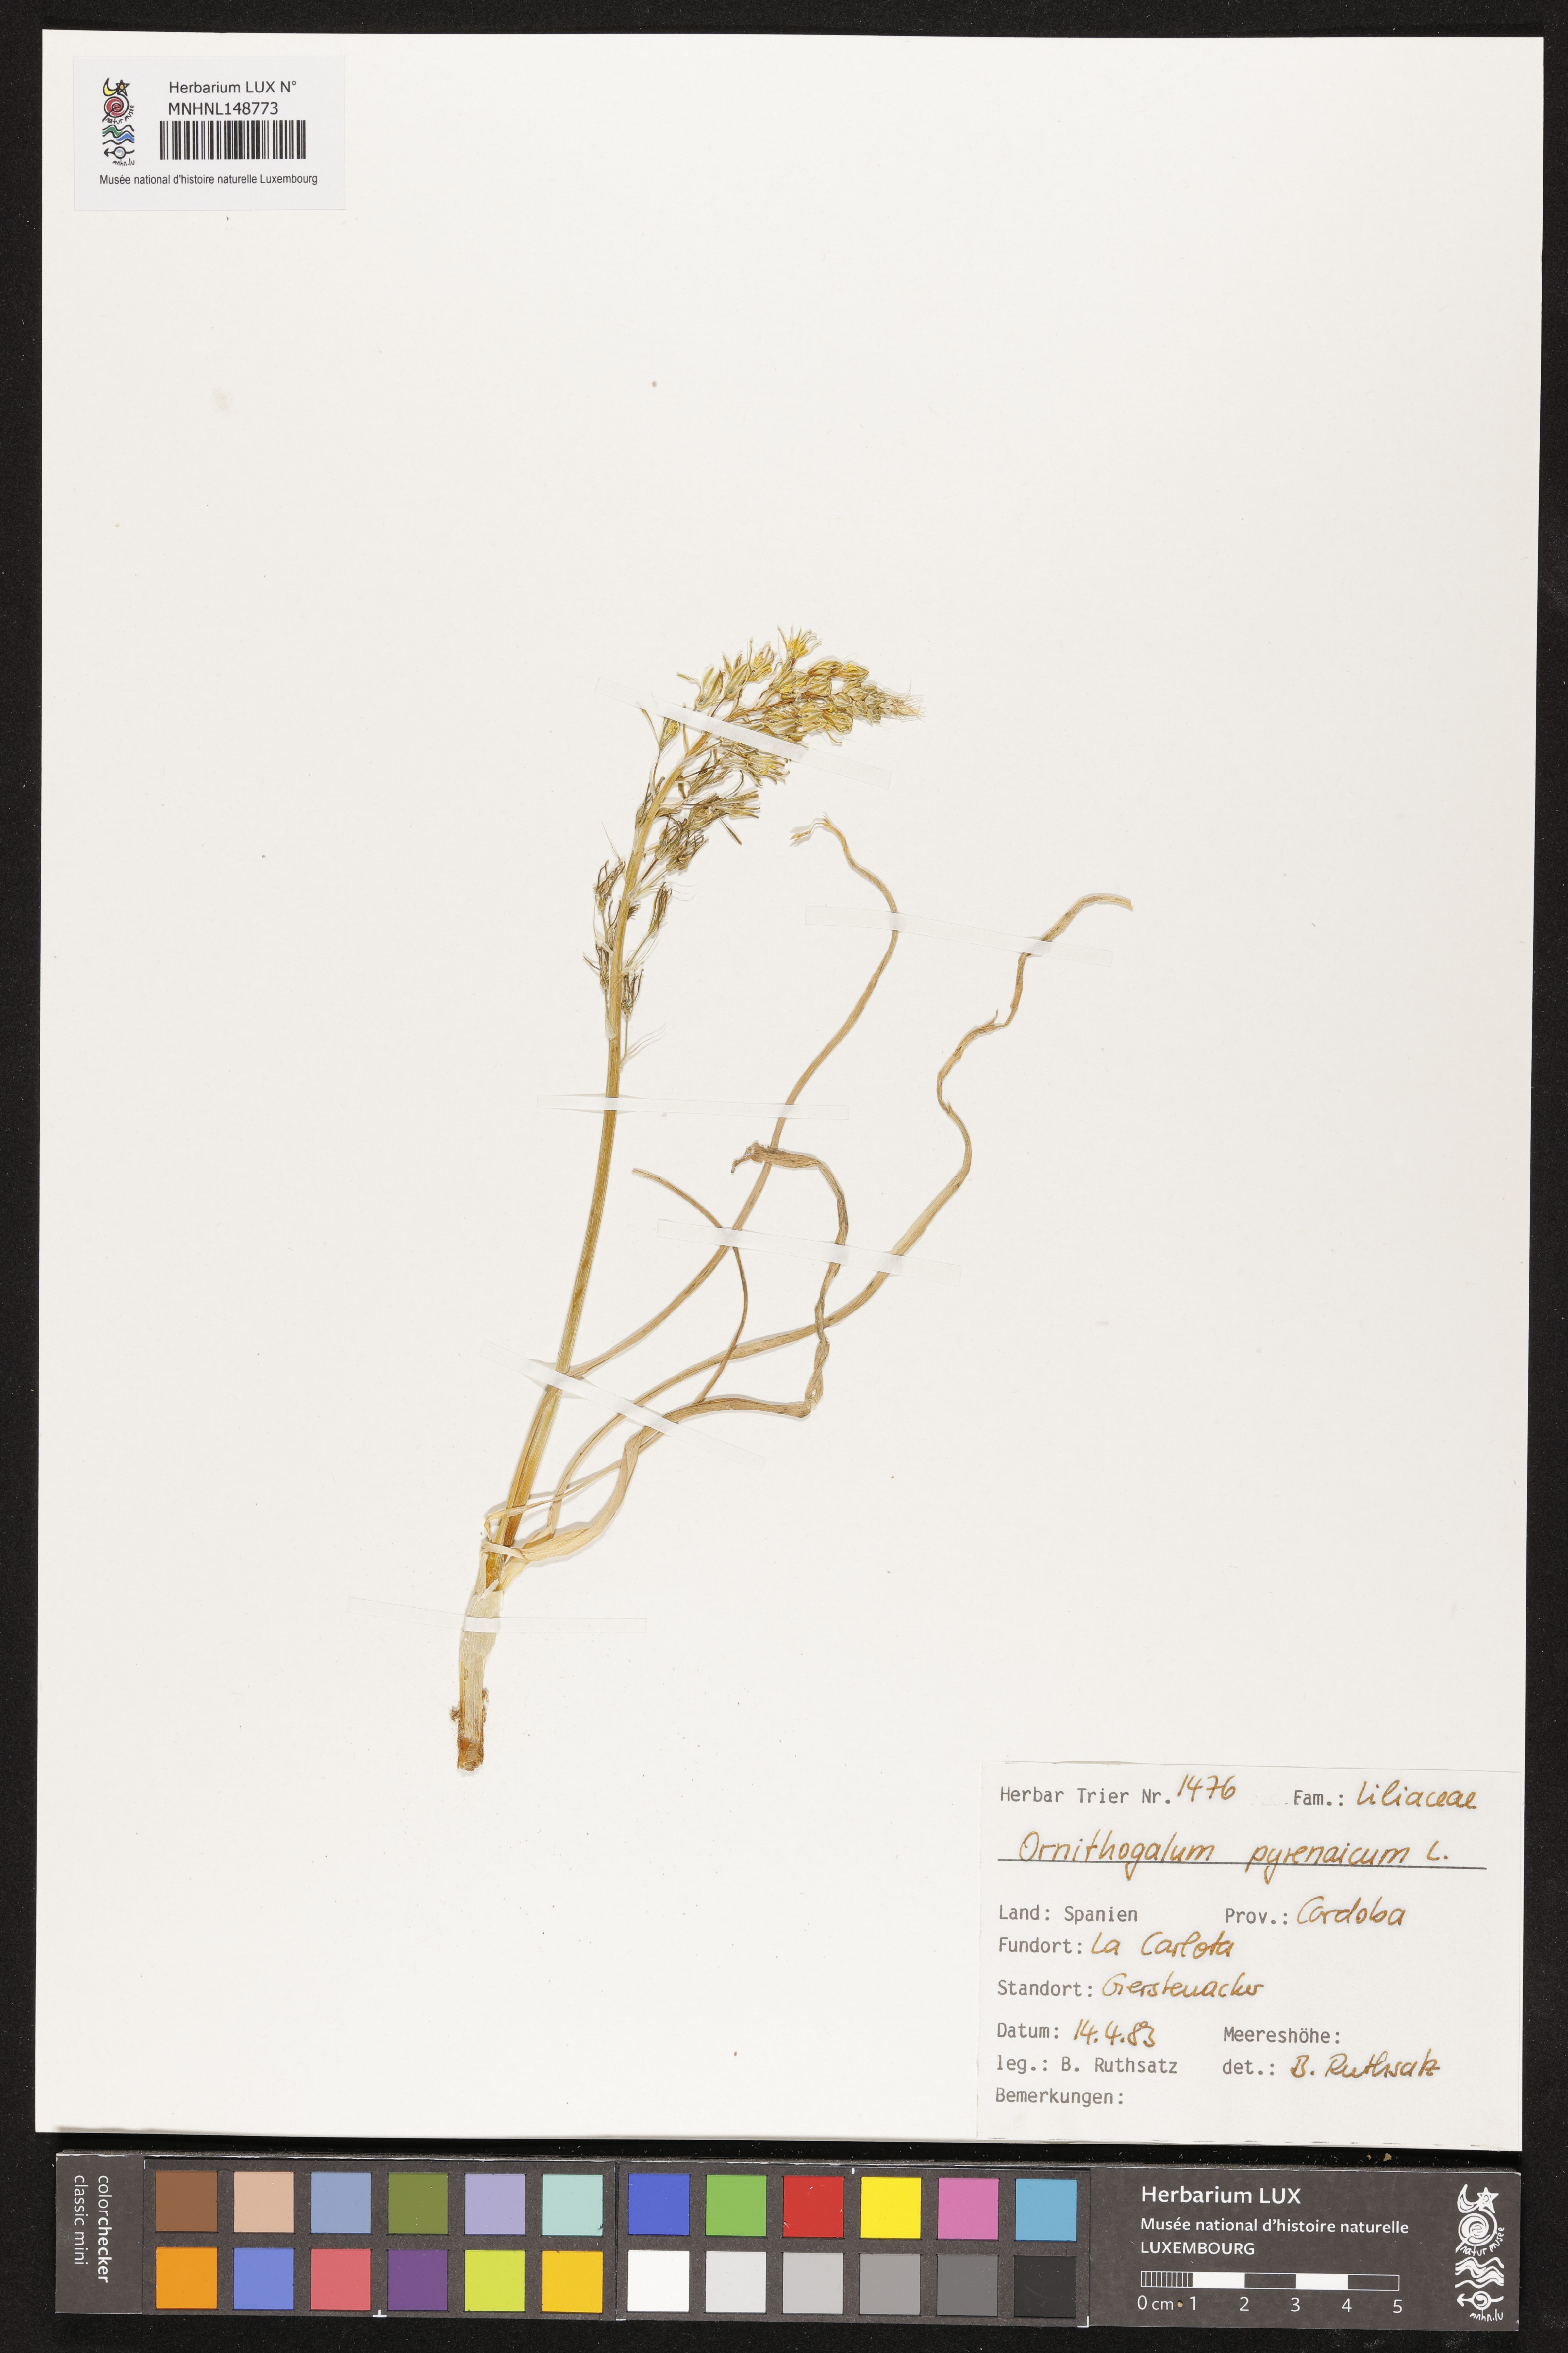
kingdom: Plantae
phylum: Tracheophyta
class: Liliopsida
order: Asparagales
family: Asparagaceae
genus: Ornithogalum
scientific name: Ornithogalum pyrenaicum
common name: Spiked star-of-bethlehem
